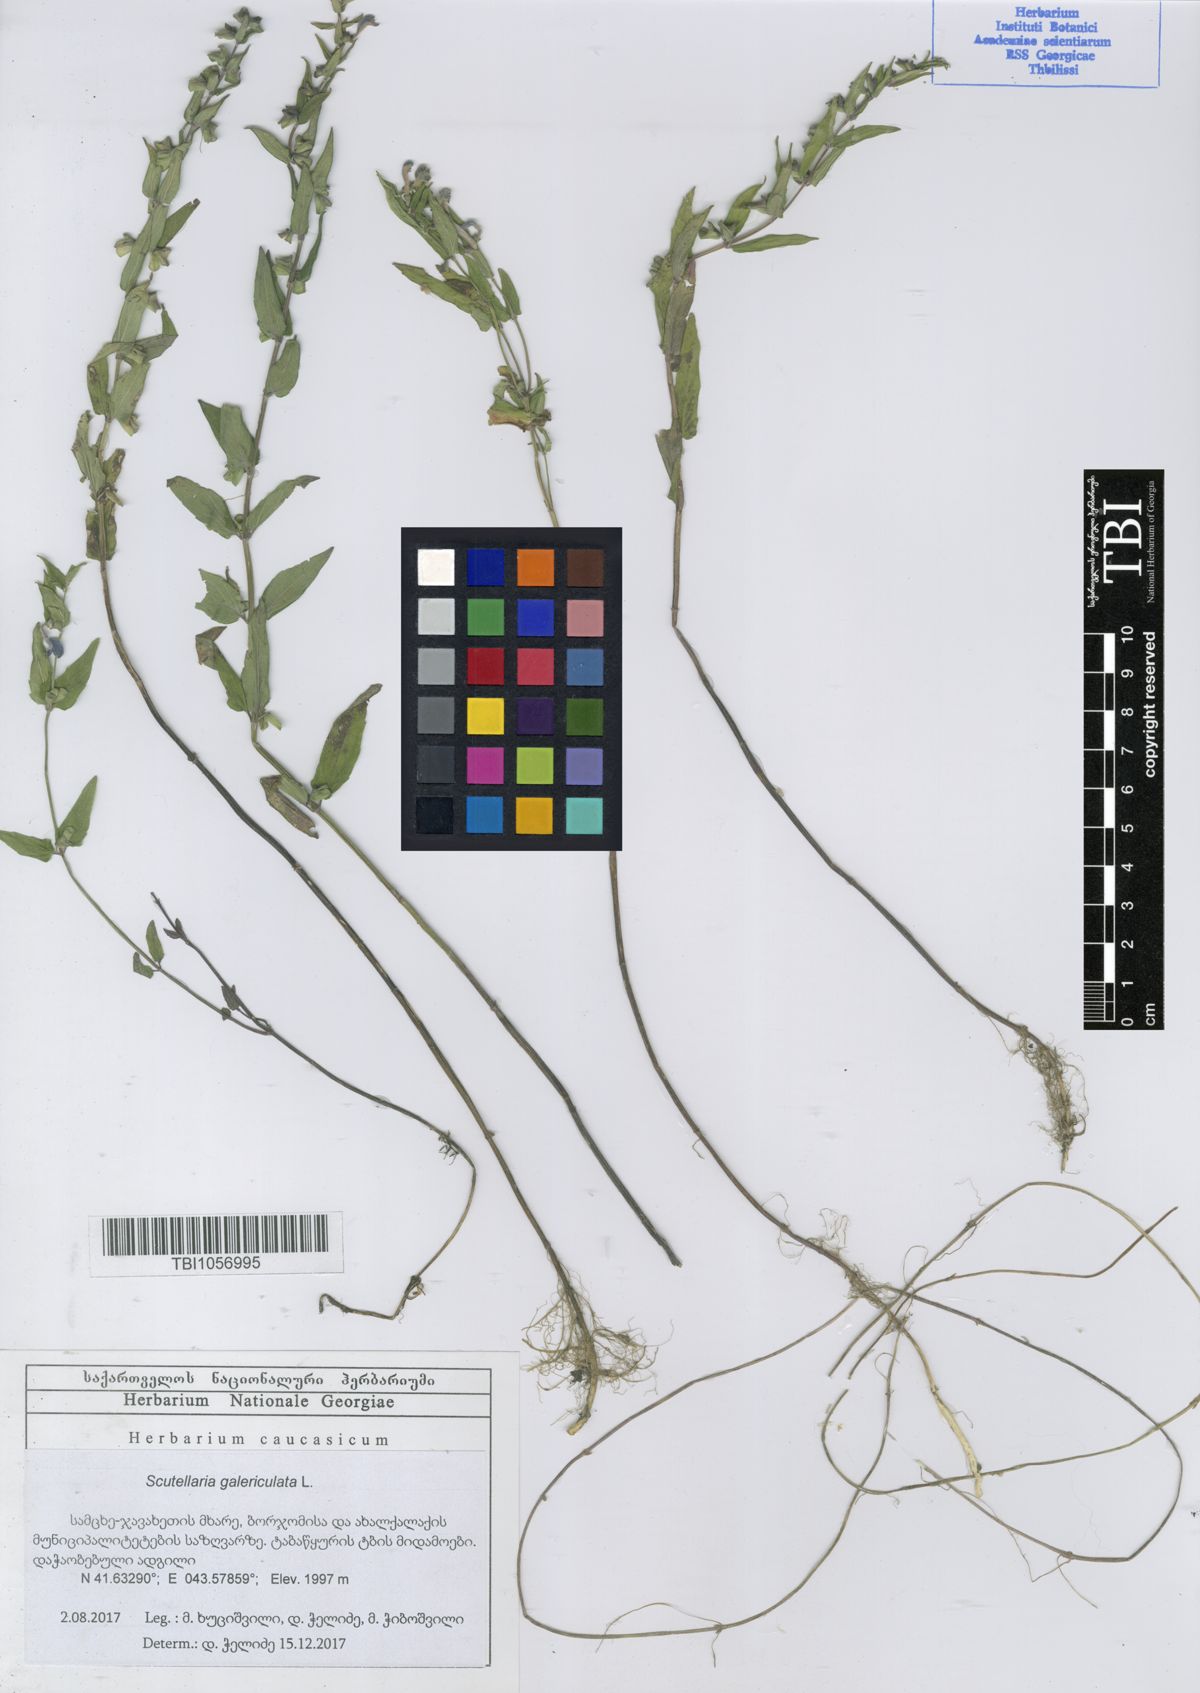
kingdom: Plantae
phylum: Tracheophyta
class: Magnoliopsida
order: Lamiales
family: Lamiaceae
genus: Scutellaria
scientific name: Scutellaria galericulata
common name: Skullcap
